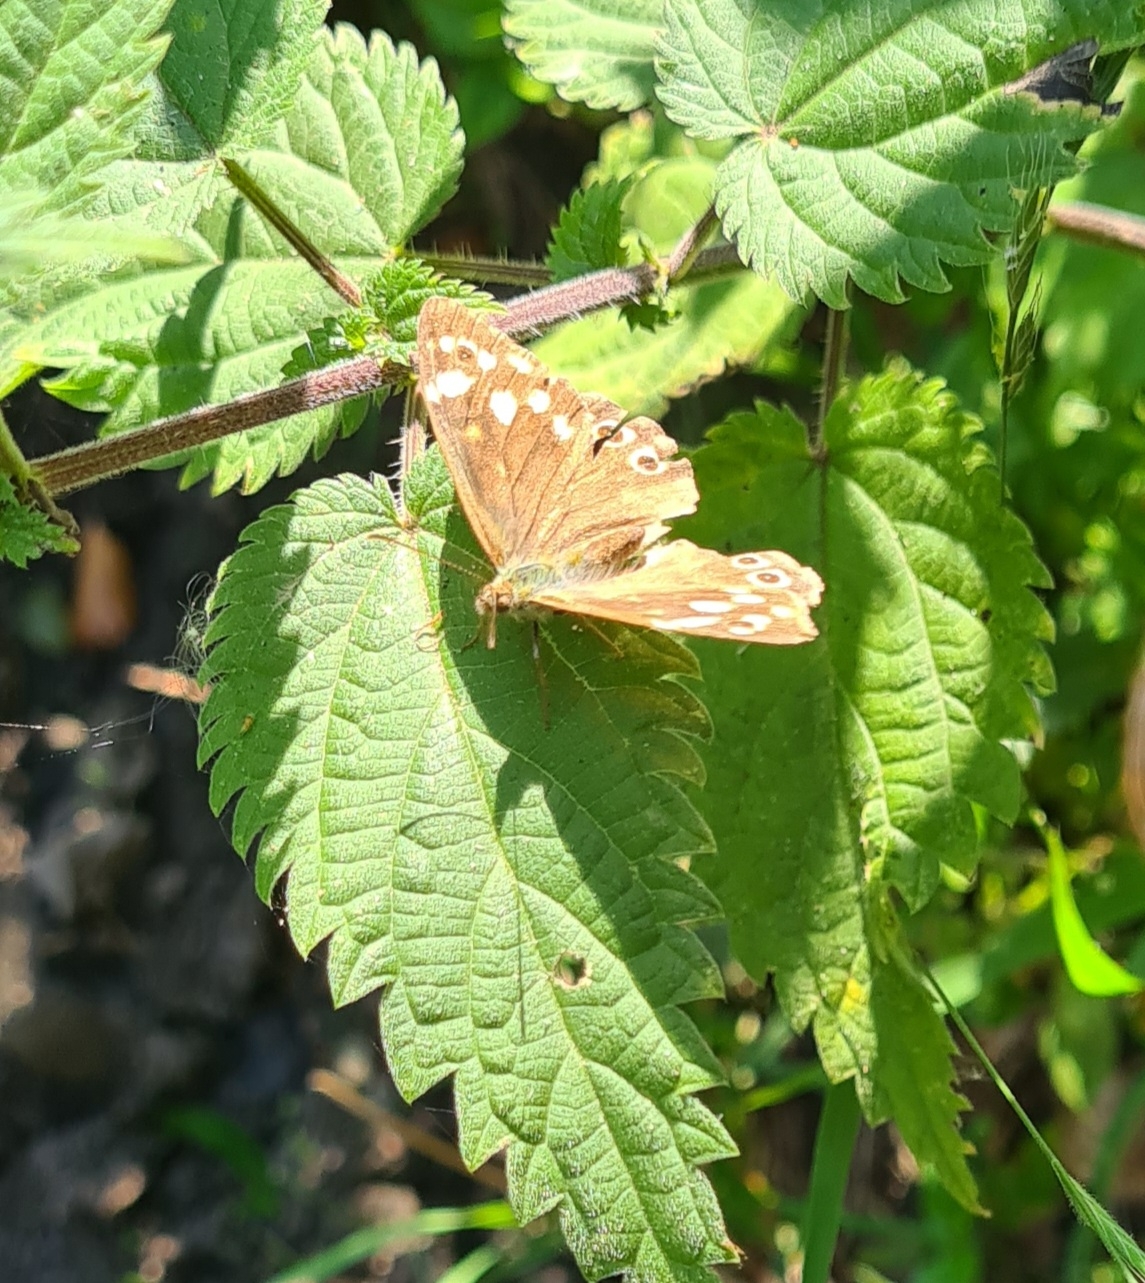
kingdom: Animalia
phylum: Arthropoda
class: Insecta
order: Lepidoptera
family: Nymphalidae
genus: Pararge
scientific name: Pararge aegeria
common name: Skovrandøje
